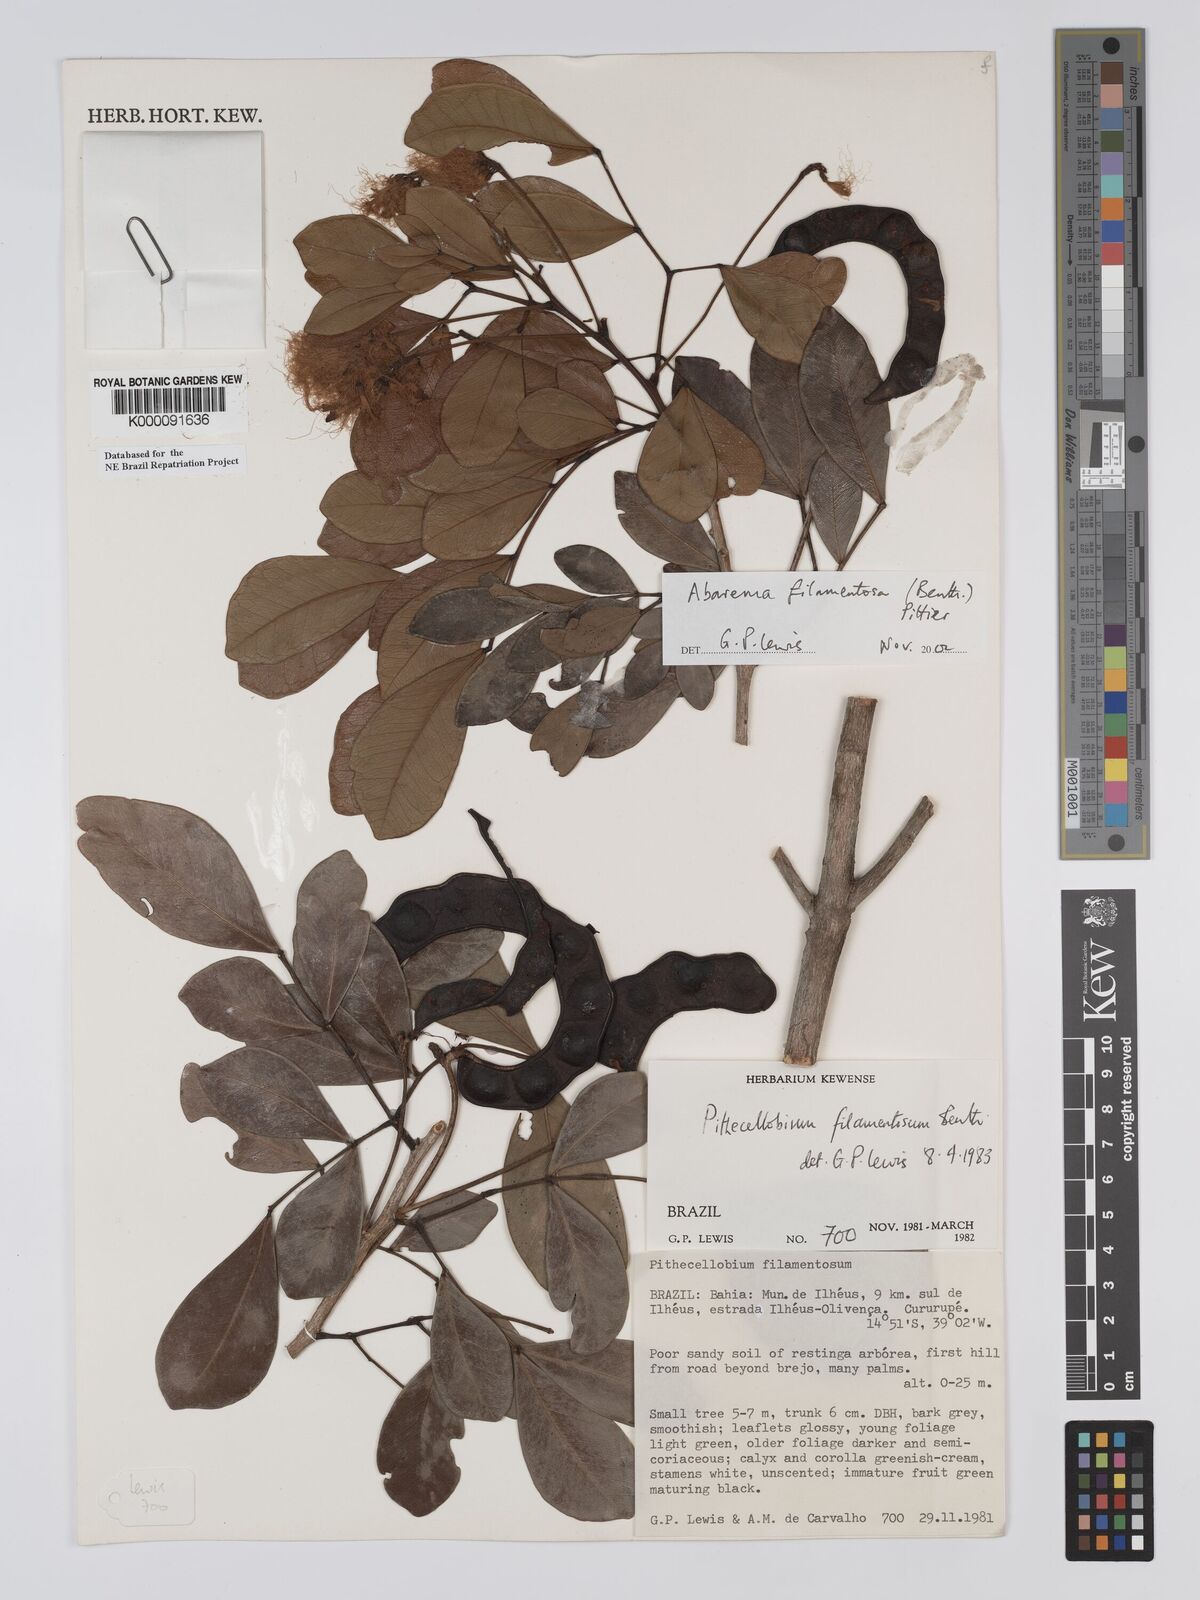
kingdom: Plantae
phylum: Tracheophyta
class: Magnoliopsida
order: Fabales
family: Fabaceae
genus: Jupunba
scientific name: Jupunba filamentosa
